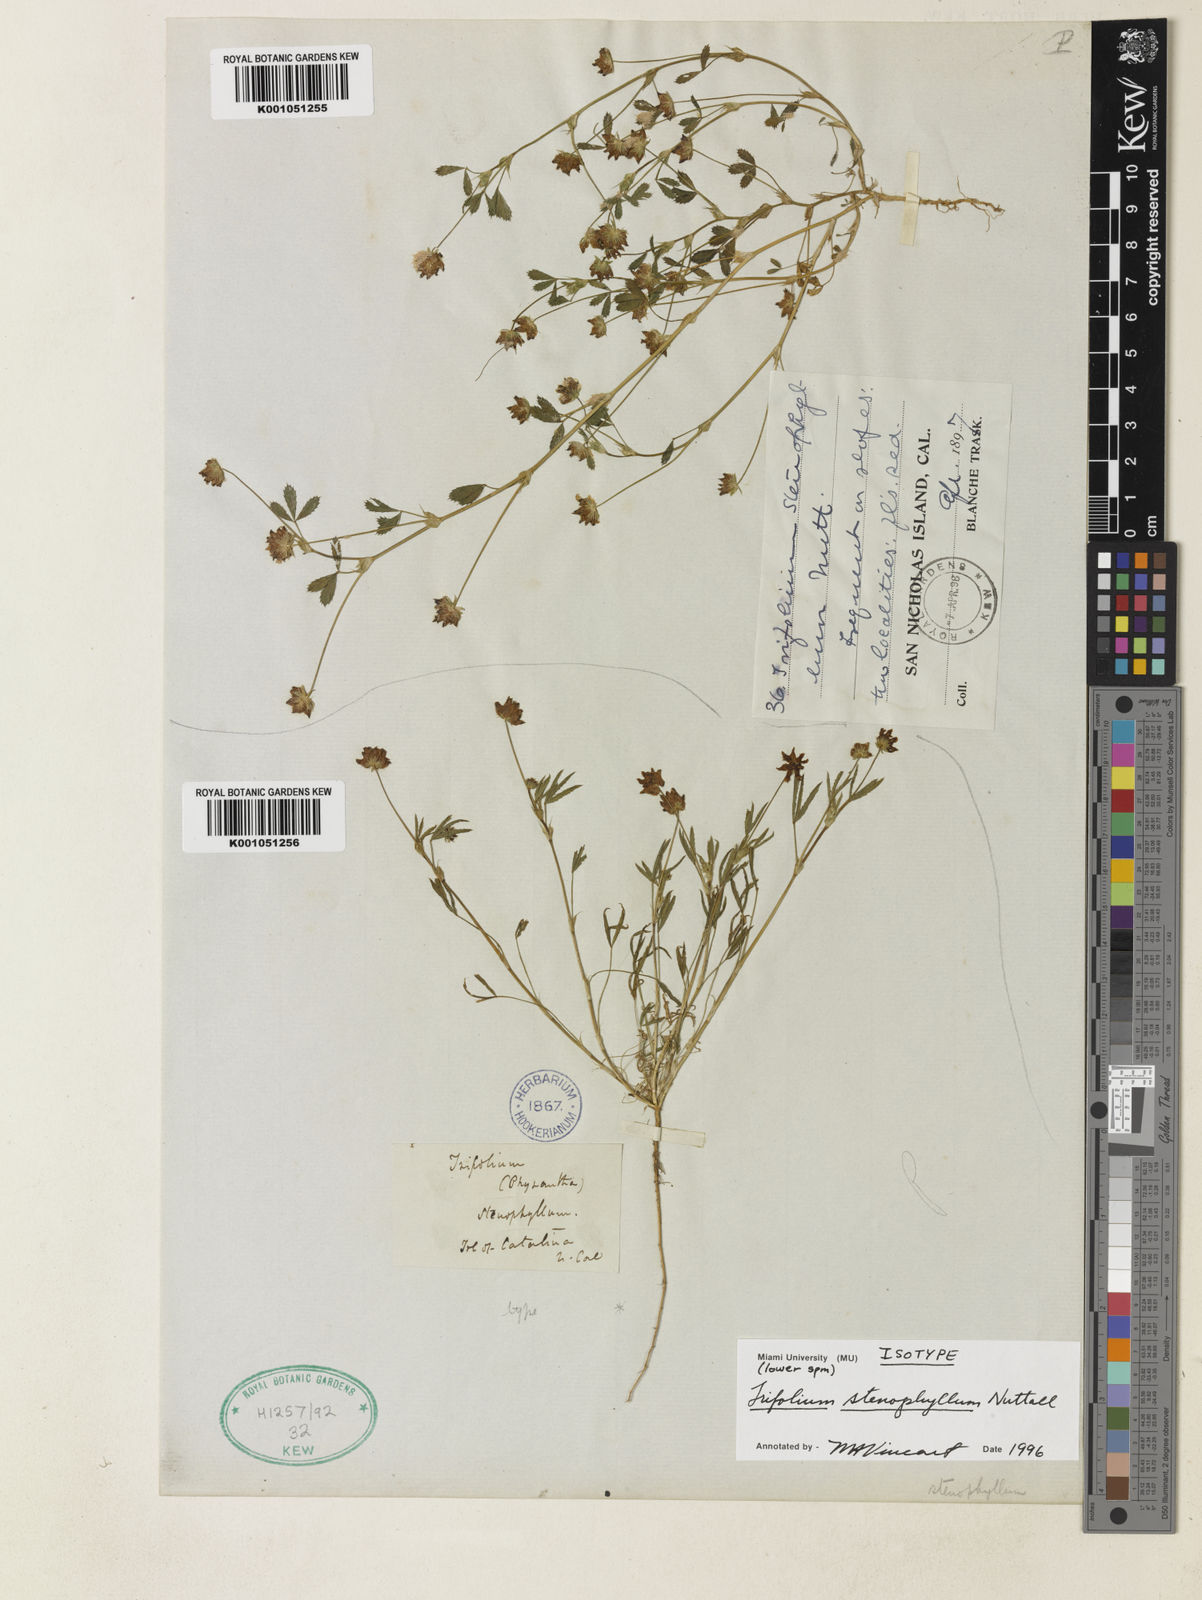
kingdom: Plantae
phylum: Tracheophyta
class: Magnoliopsida
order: Fabales
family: Fabaceae
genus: Trifolium
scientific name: Trifolium depauperatum
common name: Poverty clover
